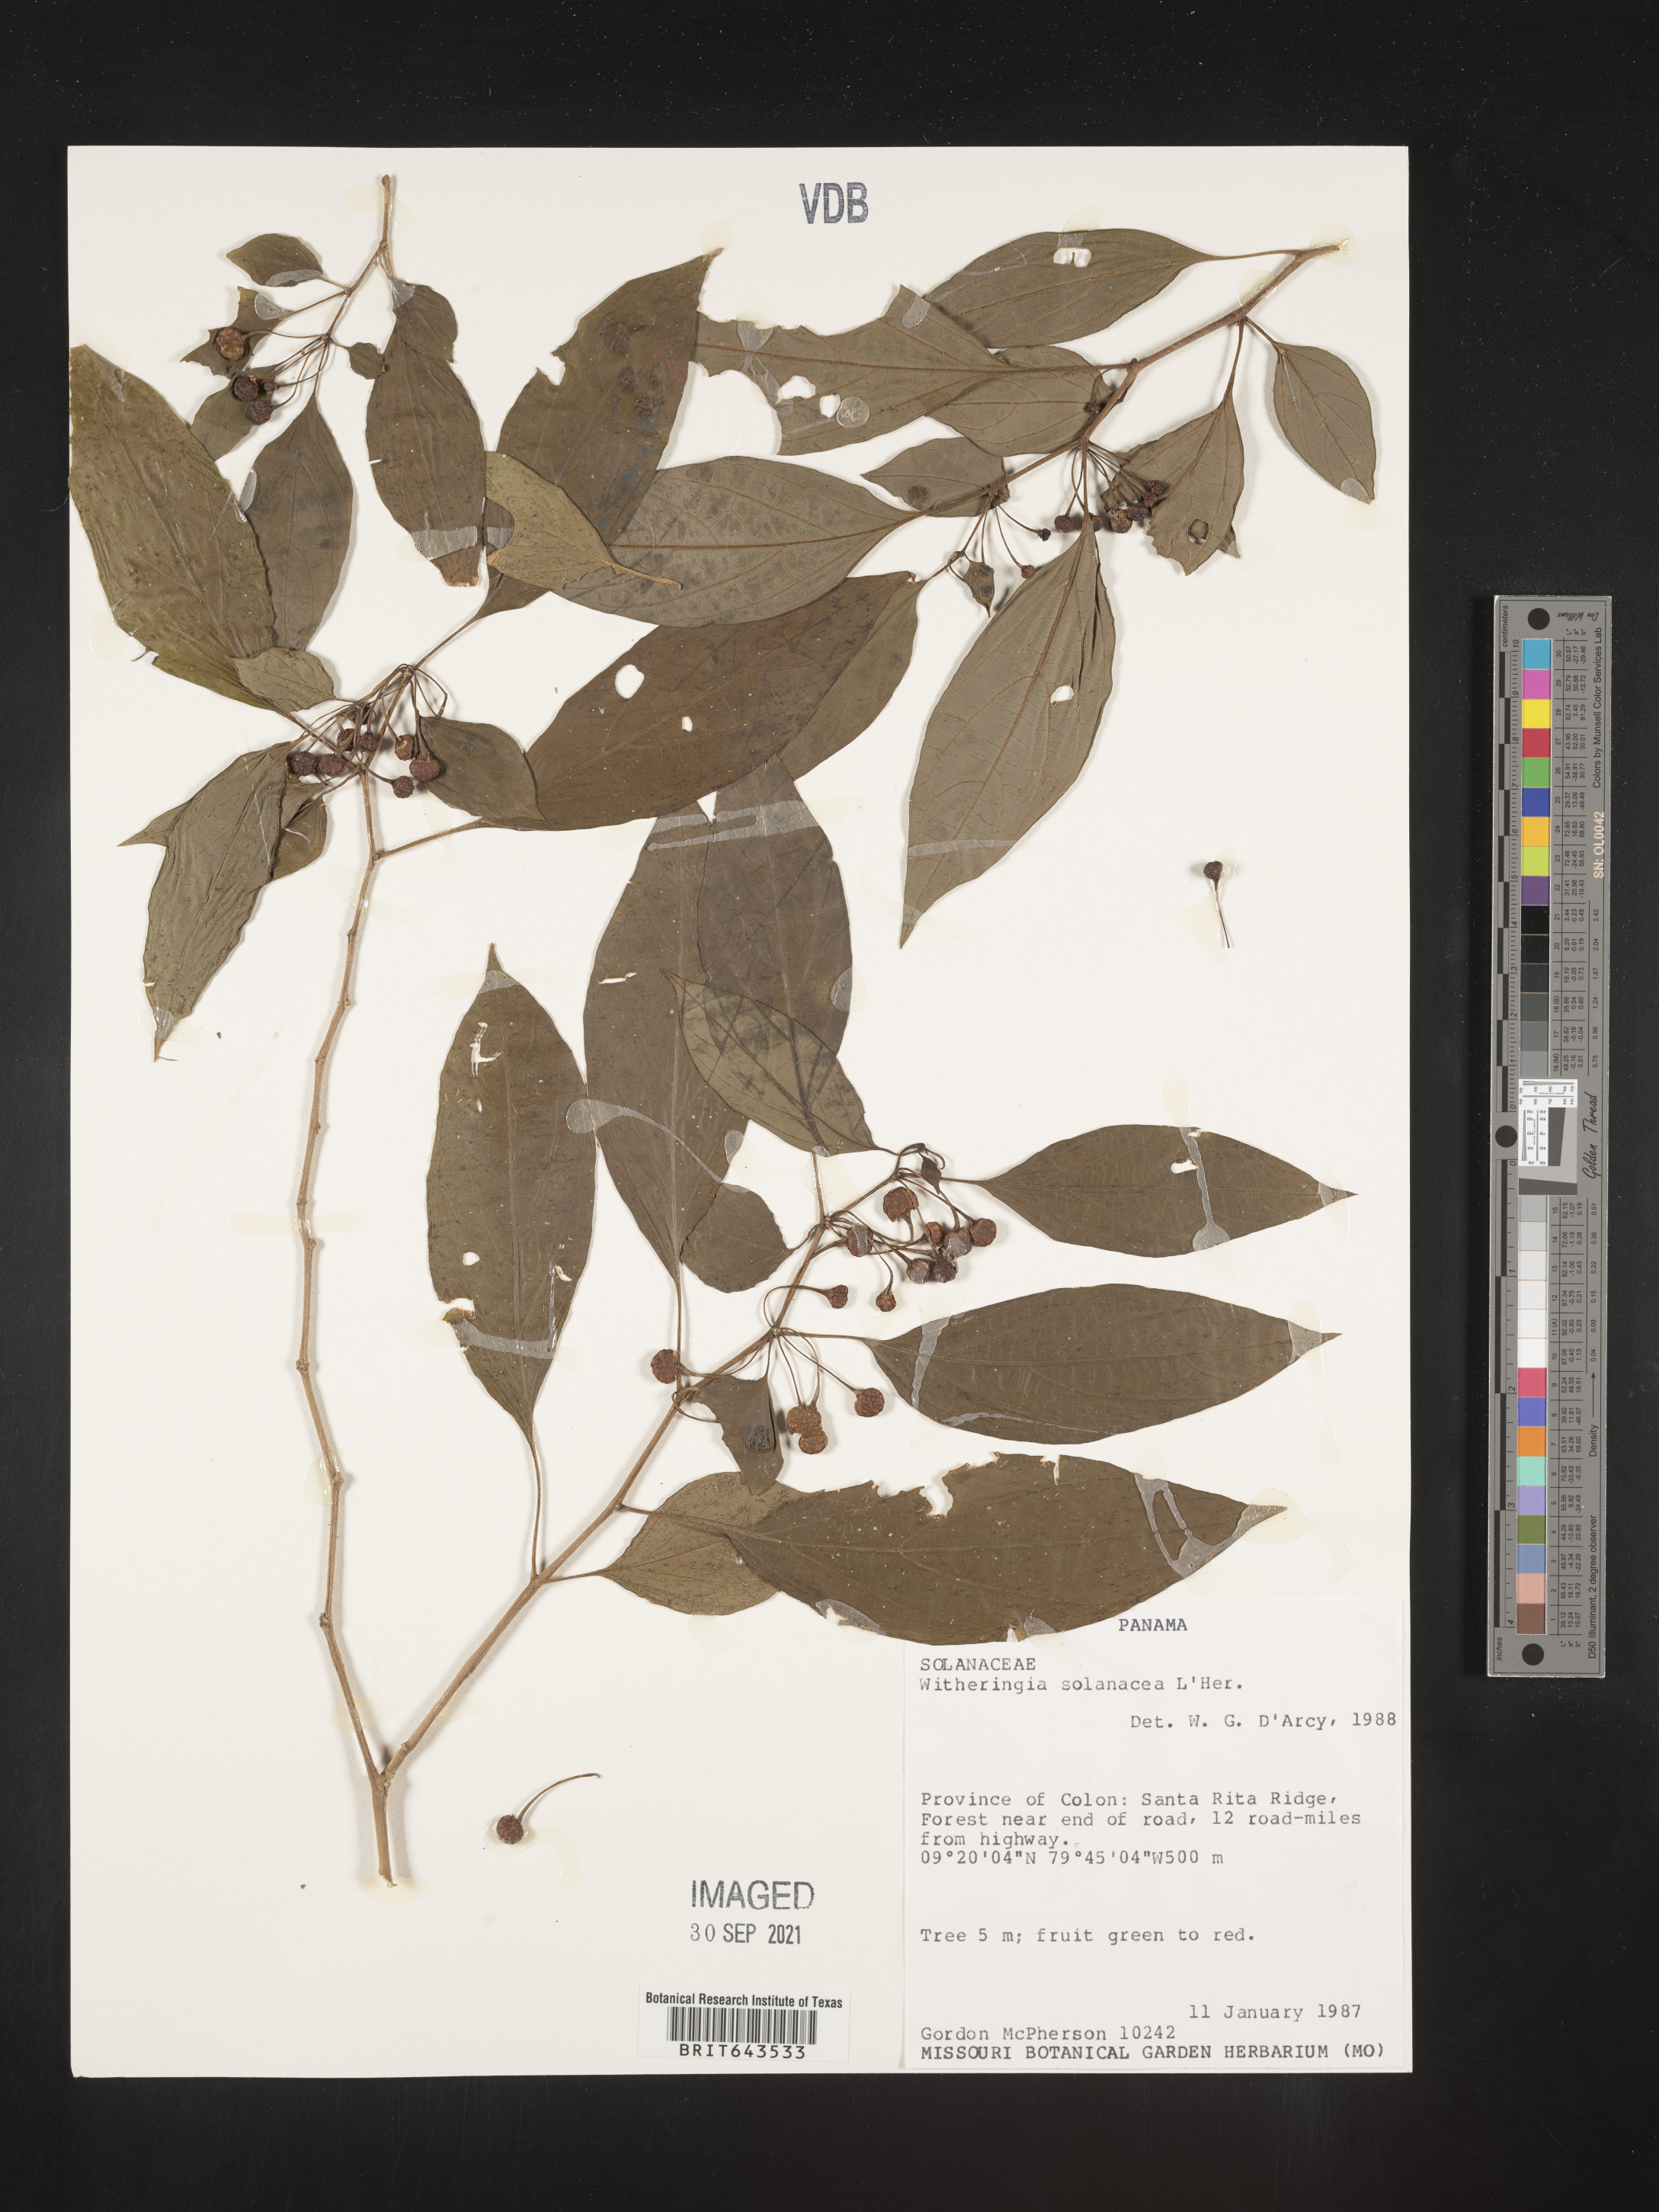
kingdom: Plantae
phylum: Tracheophyta
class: Magnoliopsida
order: Solanales
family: Solanaceae
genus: Witheringia
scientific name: Witheringia
